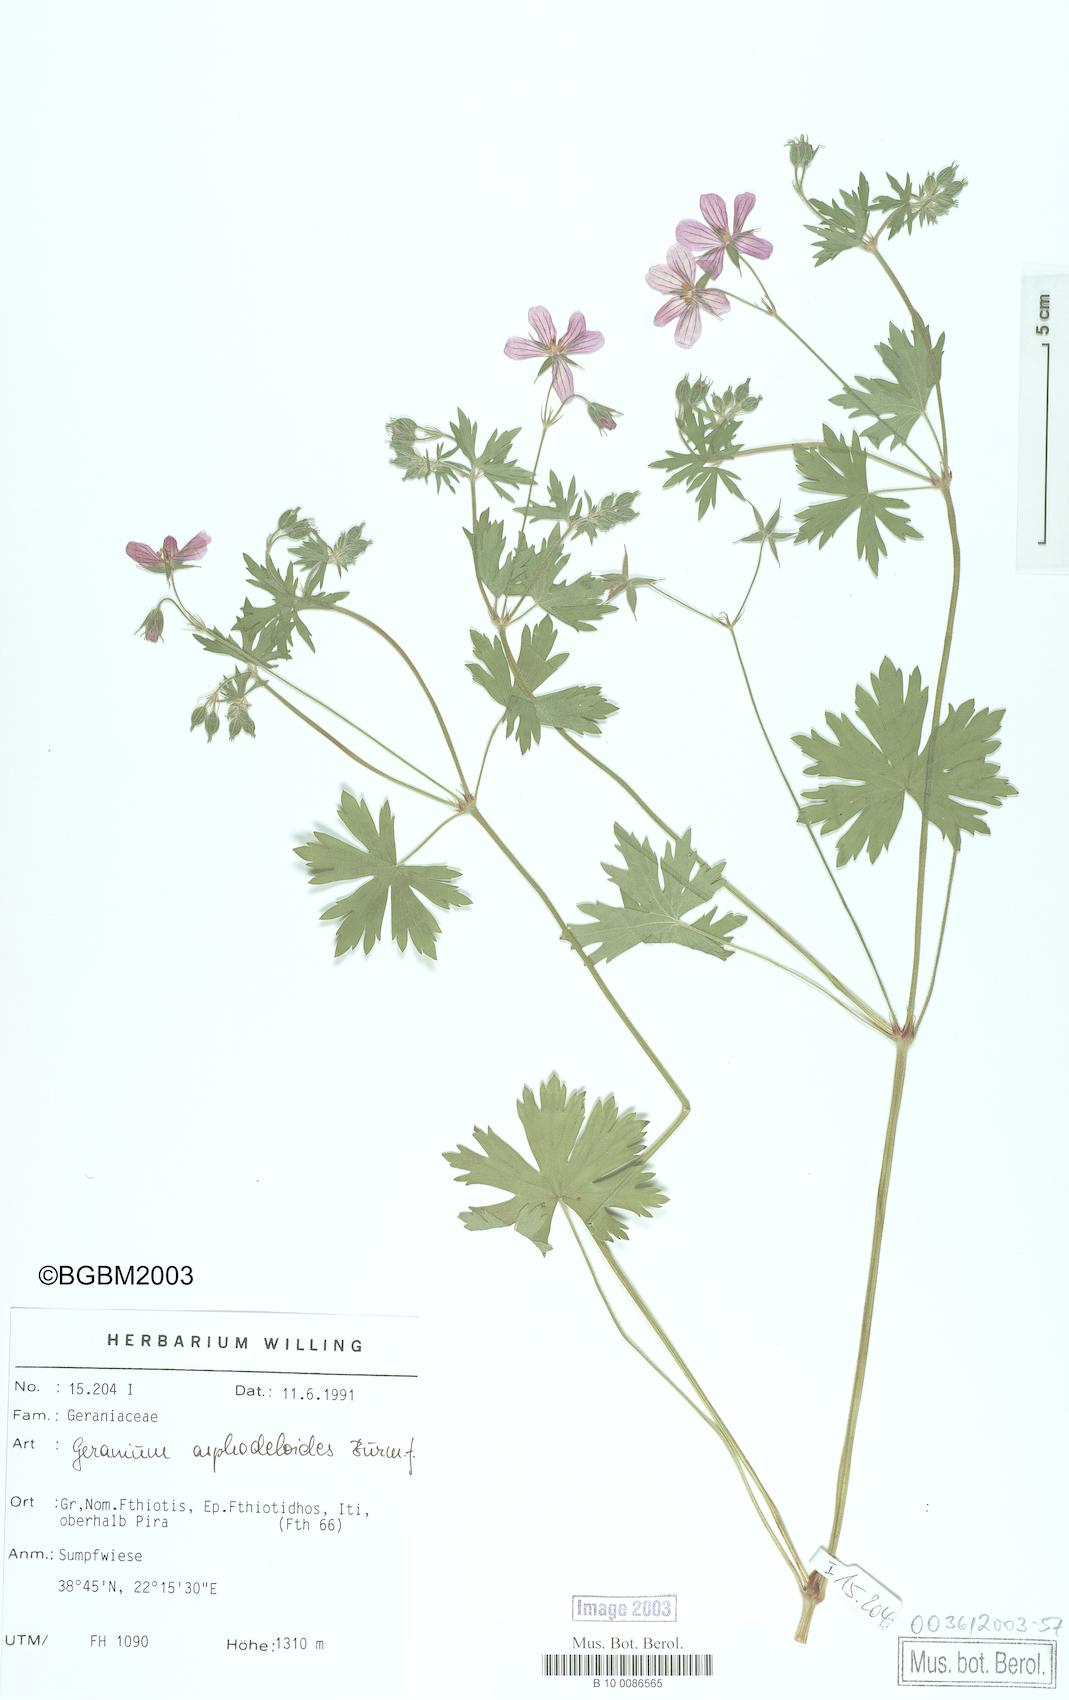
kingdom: Plantae
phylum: Tracheophyta
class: Magnoliopsida
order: Geraniales
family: Geraniaceae
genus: Geranium
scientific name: Geranium asphodeloides
